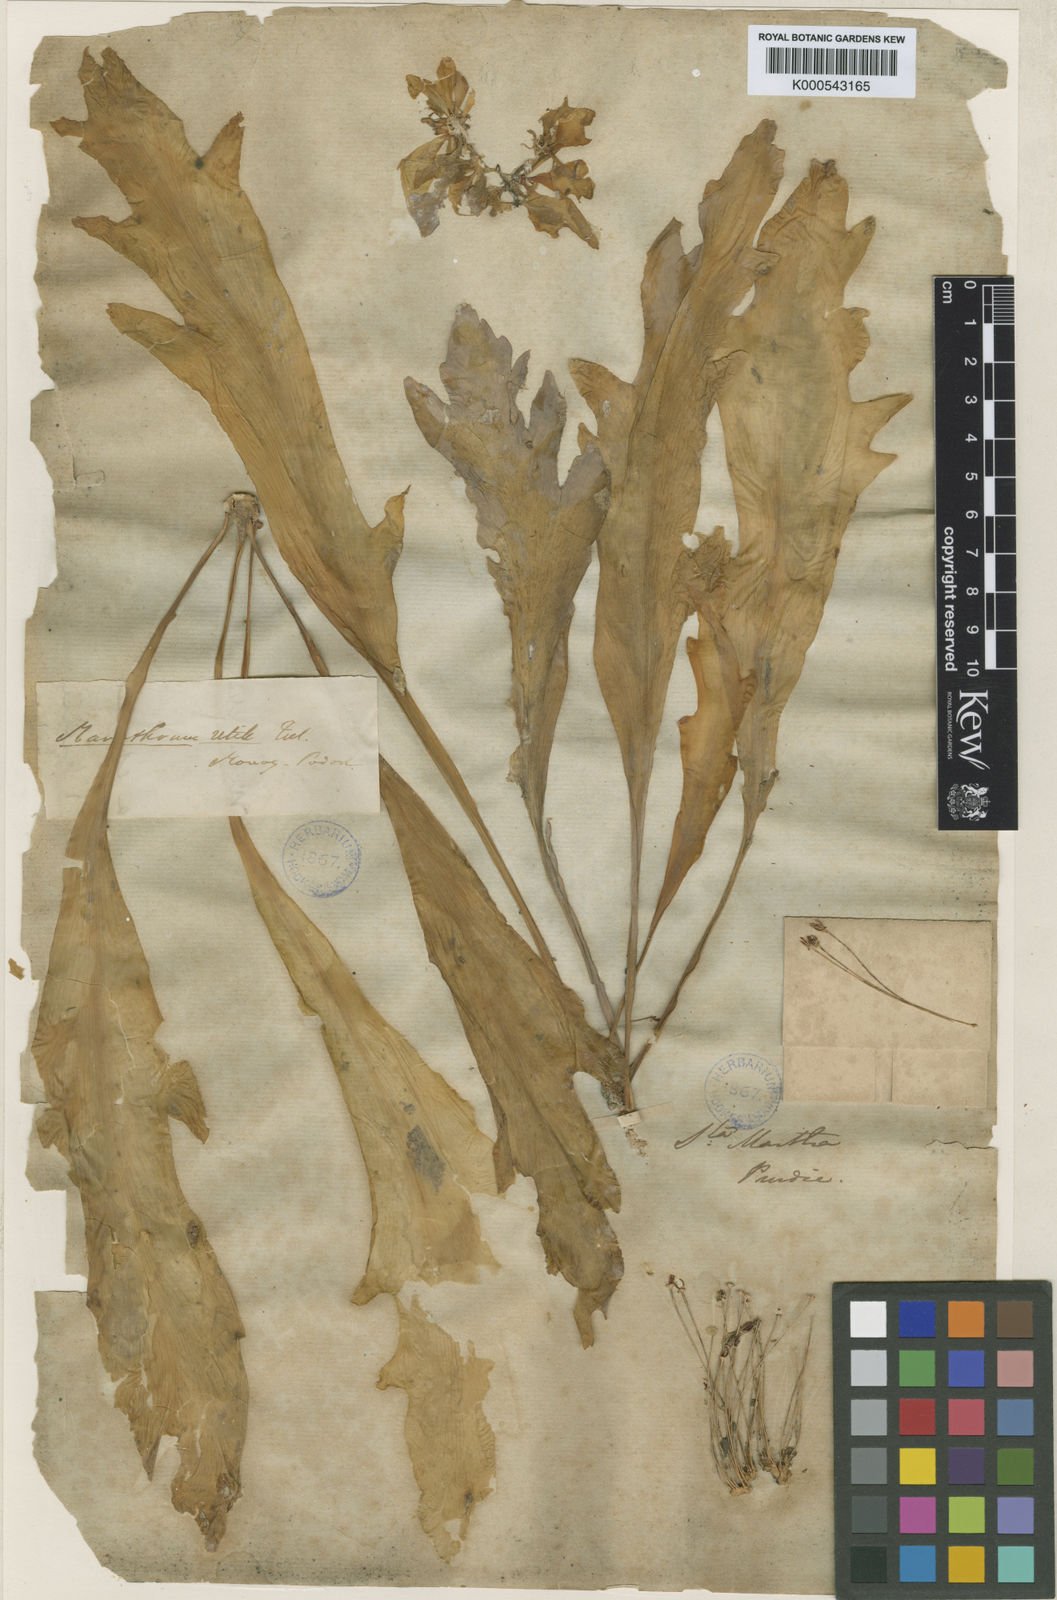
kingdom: Plantae
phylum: Tracheophyta
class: Magnoliopsida
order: Malpighiales
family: Podostemaceae
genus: Marathrum
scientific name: Marathrum utile
